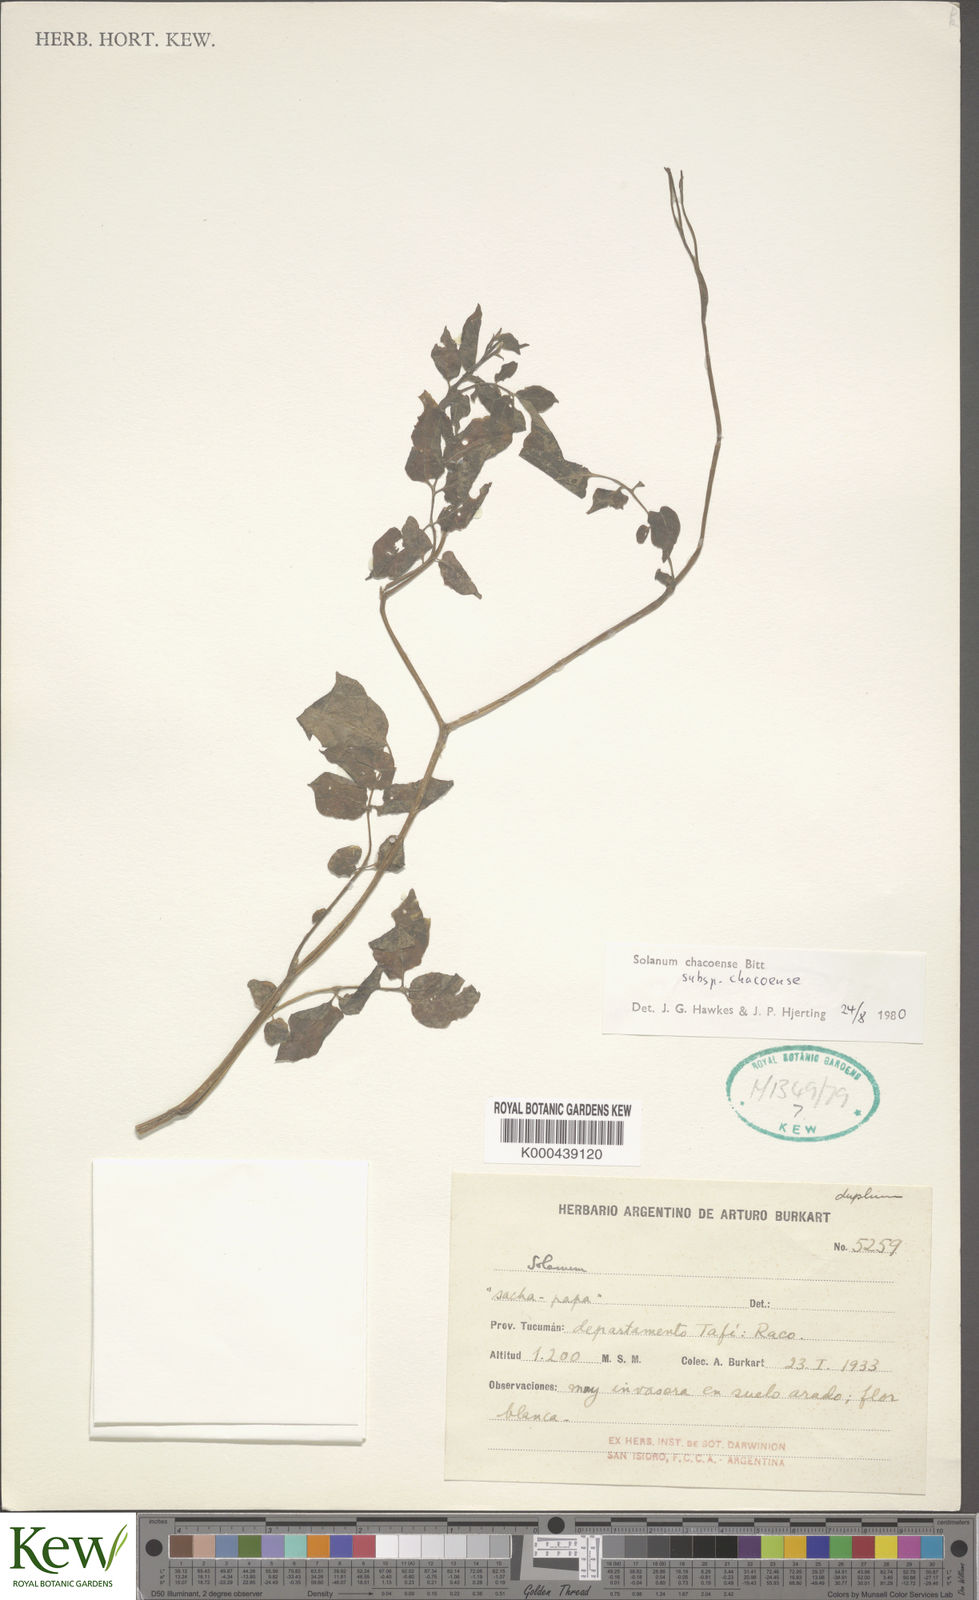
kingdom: Plantae
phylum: Tracheophyta
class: Magnoliopsida
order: Solanales
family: Solanaceae
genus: Solanum
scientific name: Solanum chacoense
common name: Chaco potato
